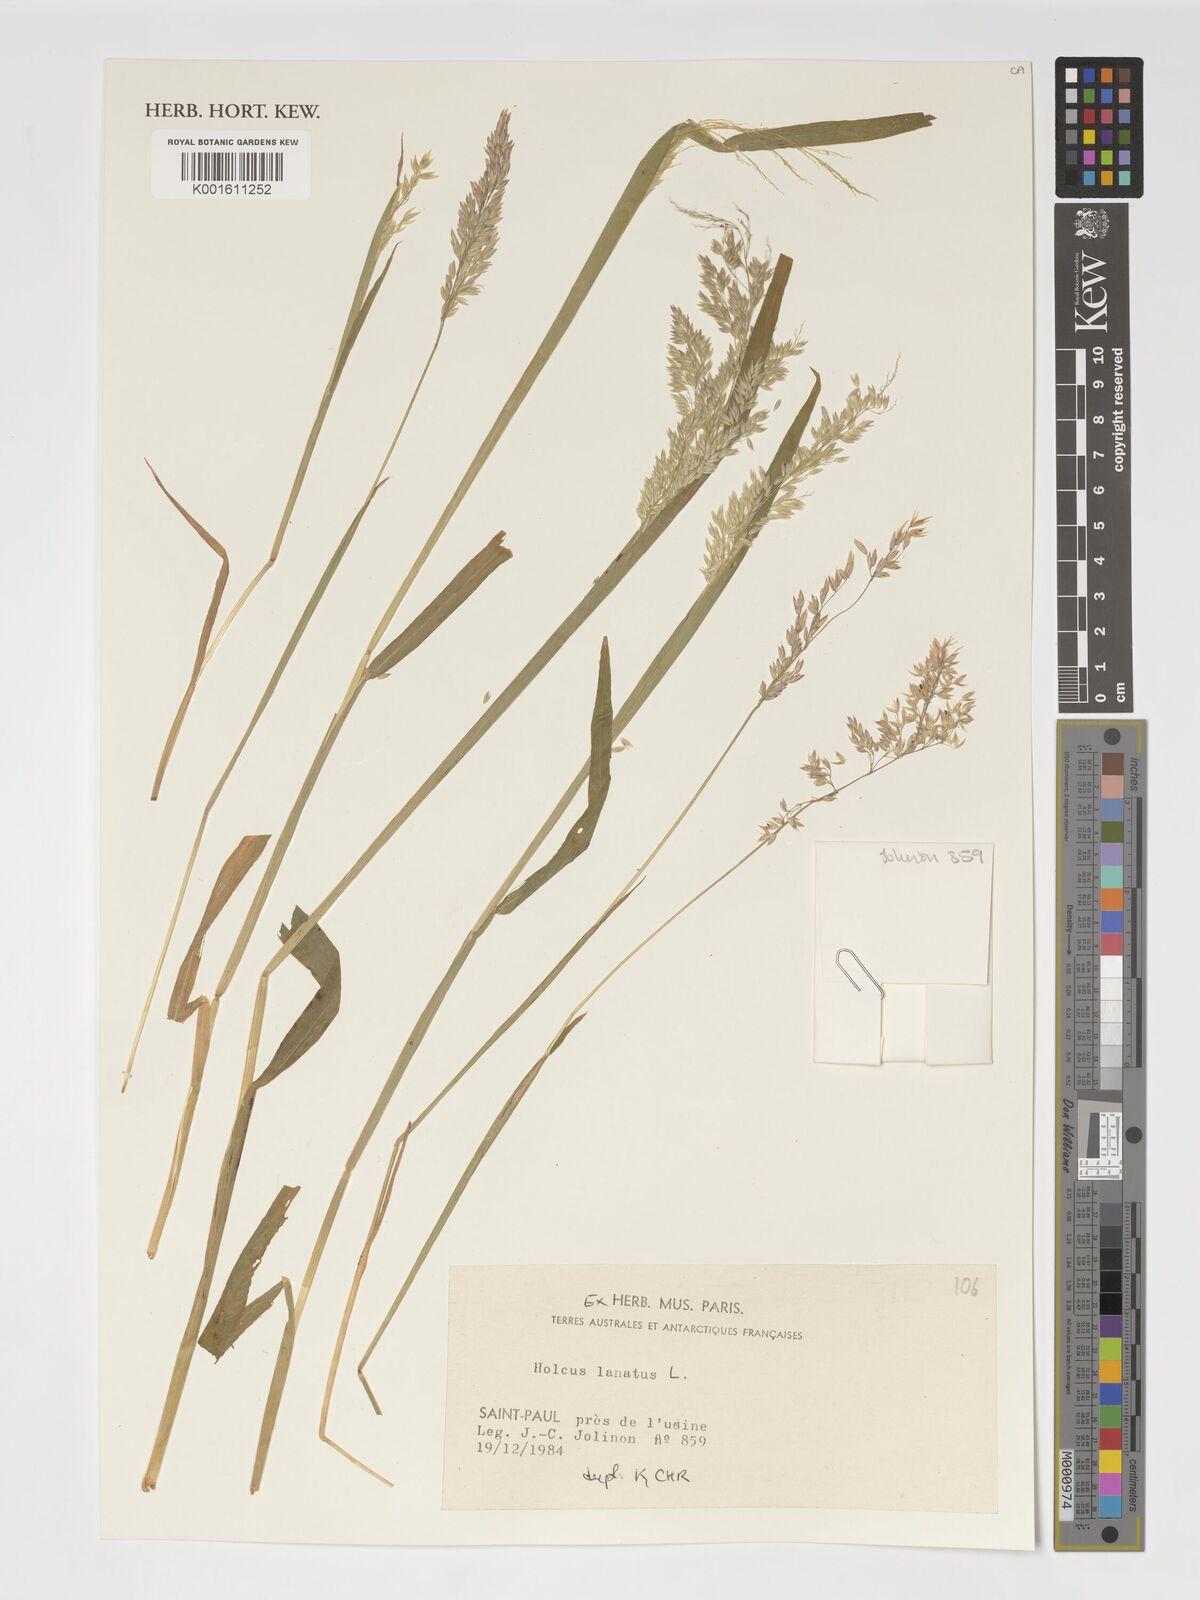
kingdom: Plantae
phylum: Tracheophyta
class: Liliopsida
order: Poales
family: Poaceae
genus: Holcus
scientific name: Holcus lanatus
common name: Yorkshire-fog
